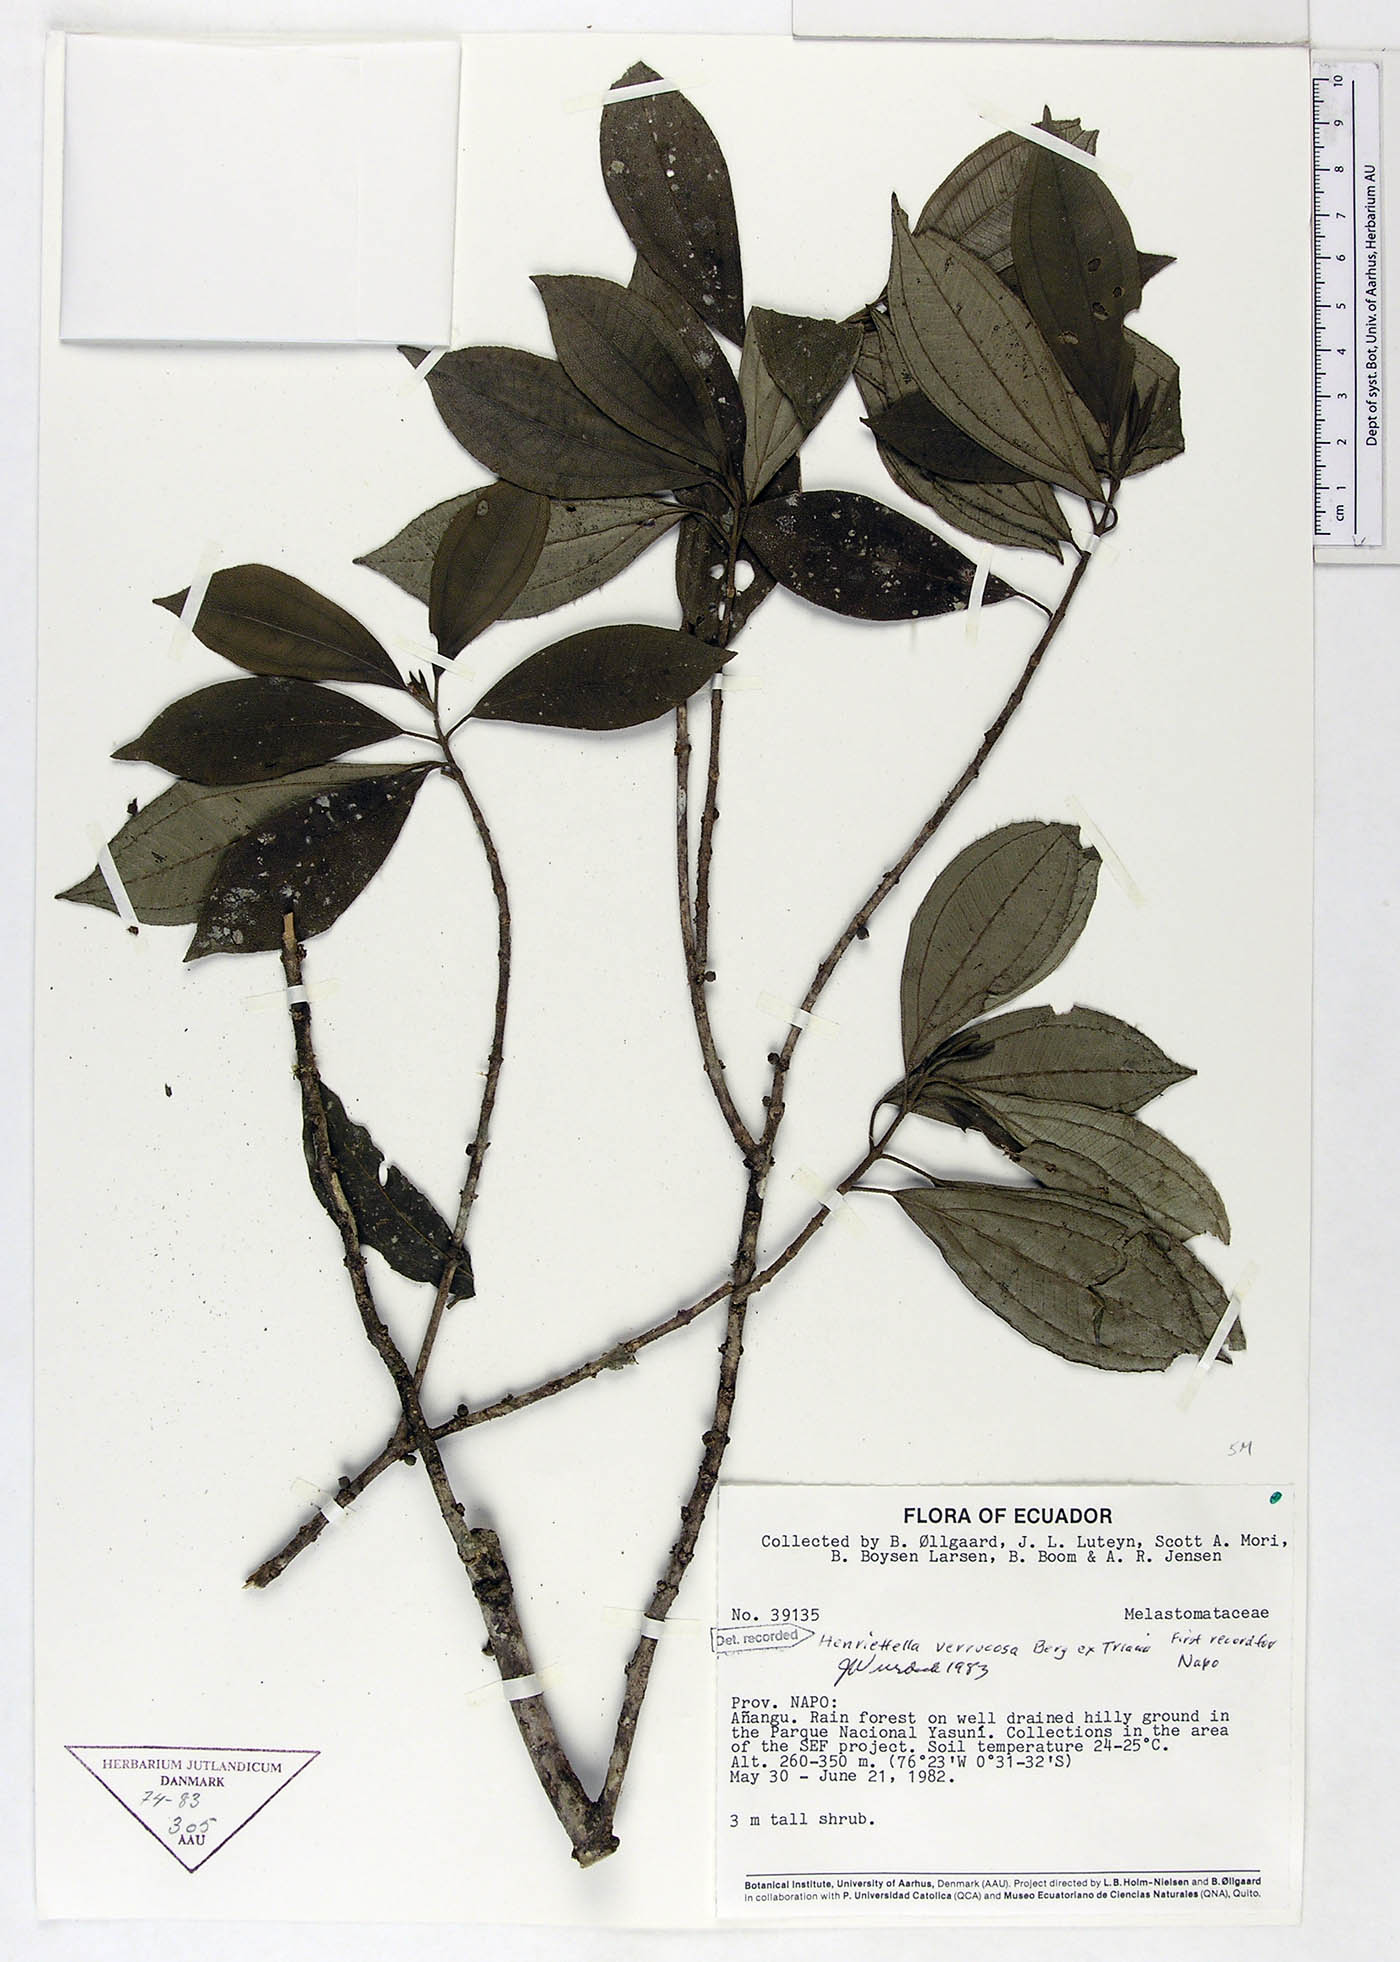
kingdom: Plantae
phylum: Tracheophyta
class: Magnoliopsida
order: Myrtales
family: Melastomataceae
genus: Henriettea
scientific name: Henriettea verrucosa
